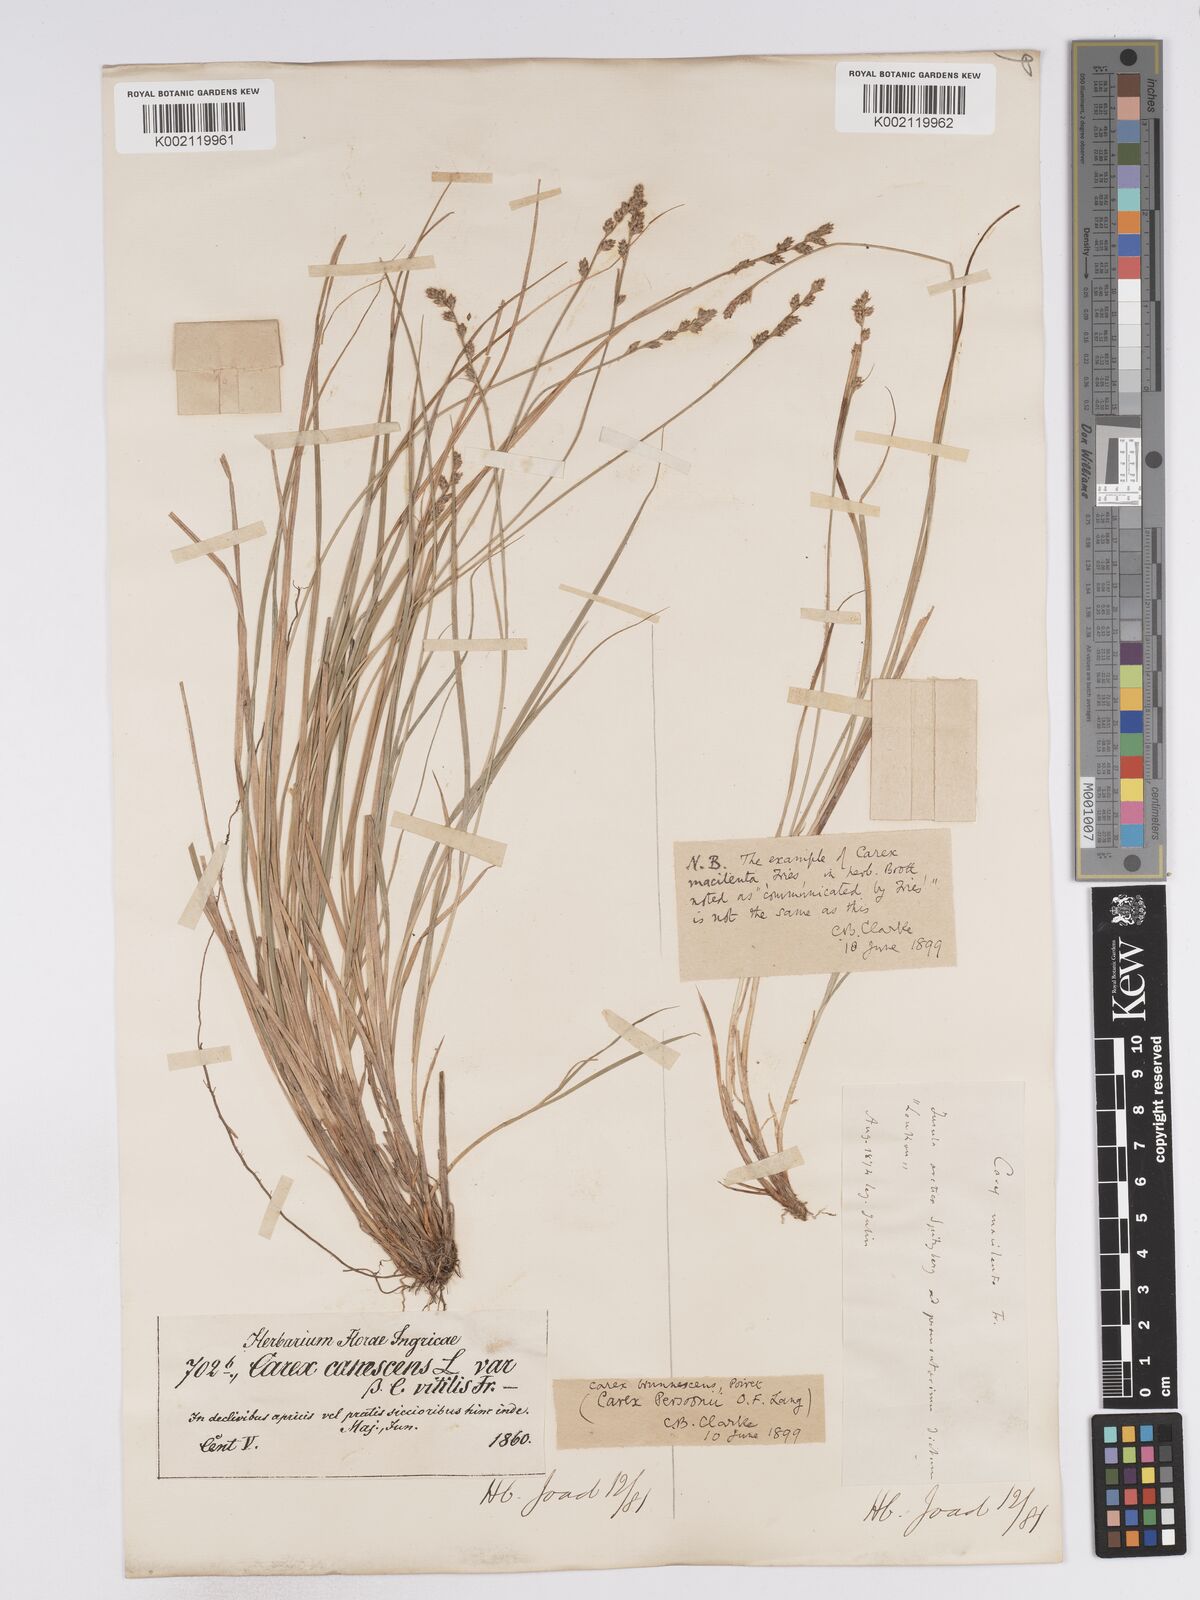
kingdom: Plantae
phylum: Tracheophyta
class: Liliopsida
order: Poales
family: Cyperaceae
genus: Carex
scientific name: Carex canescens
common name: White sedge
